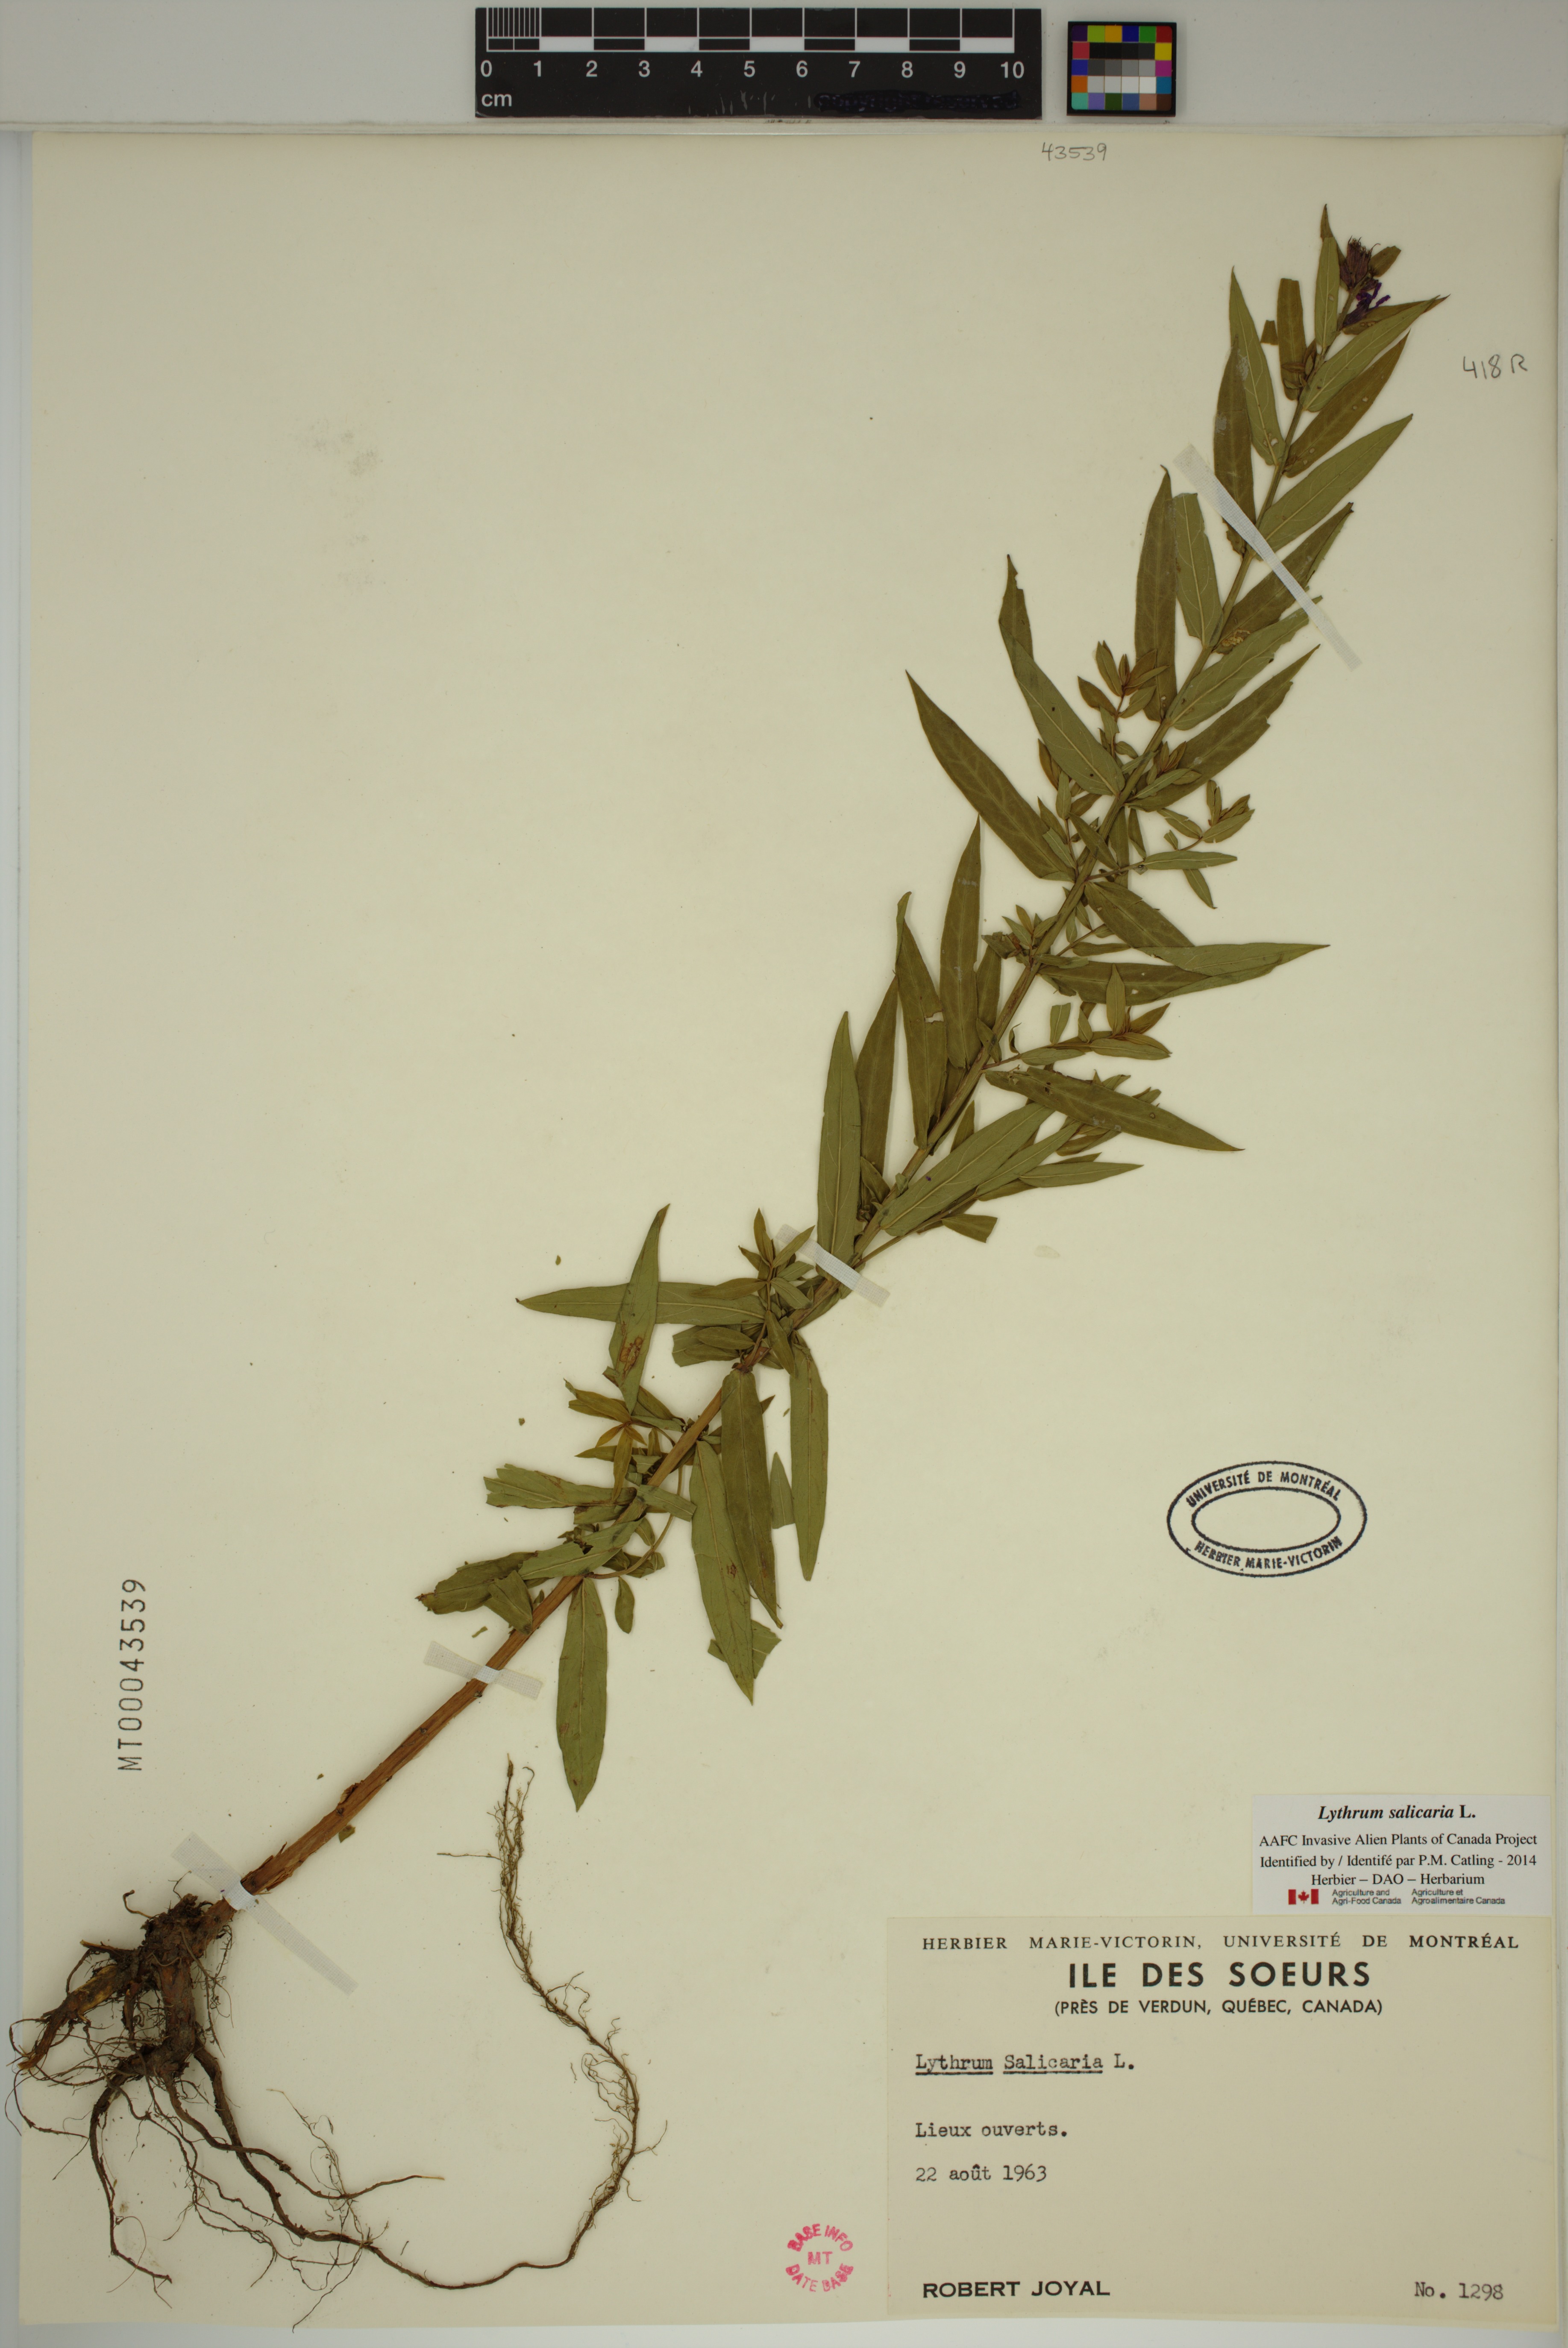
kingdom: Plantae
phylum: Tracheophyta
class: Magnoliopsida
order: Myrtales
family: Lythraceae
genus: Lythrum
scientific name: Lythrum salicaria
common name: Purple loosestrife
